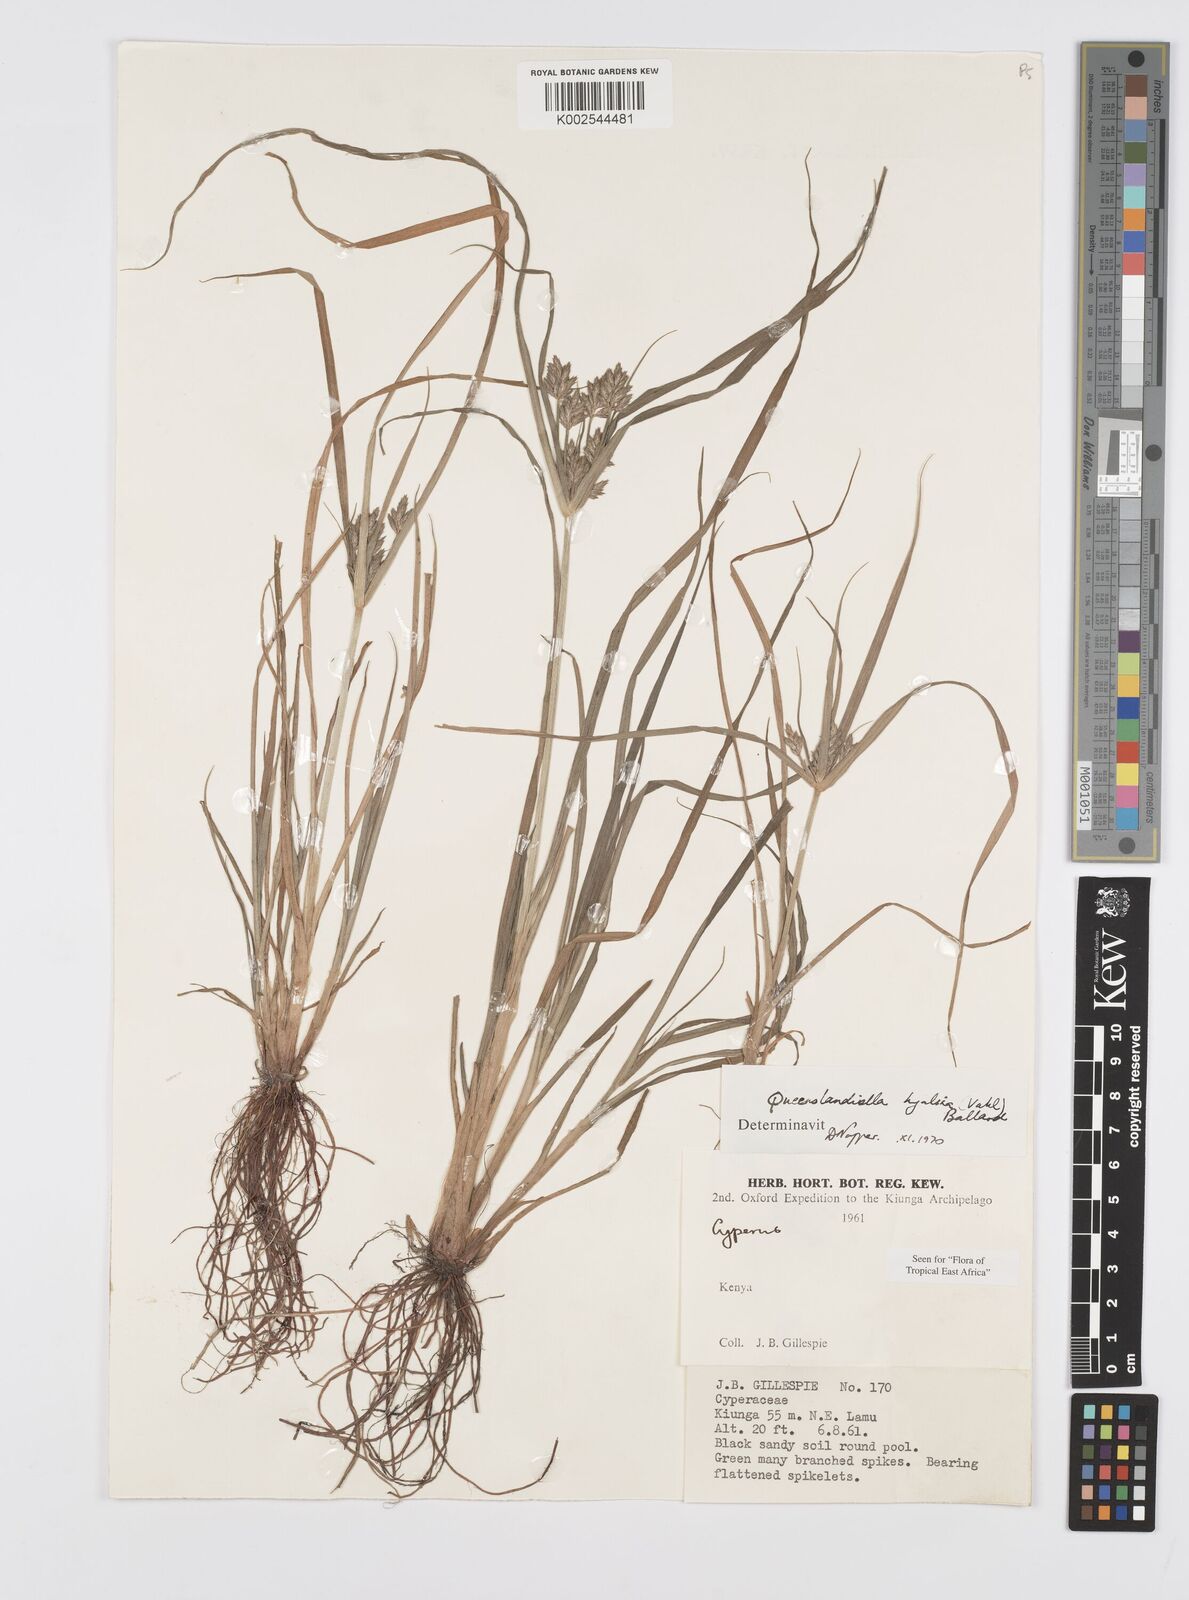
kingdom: Plantae
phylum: Tracheophyta
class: Liliopsida
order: Poales
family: Cyperaceae
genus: Cyperus
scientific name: Cyperus hyalinus
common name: Queensland sedge
